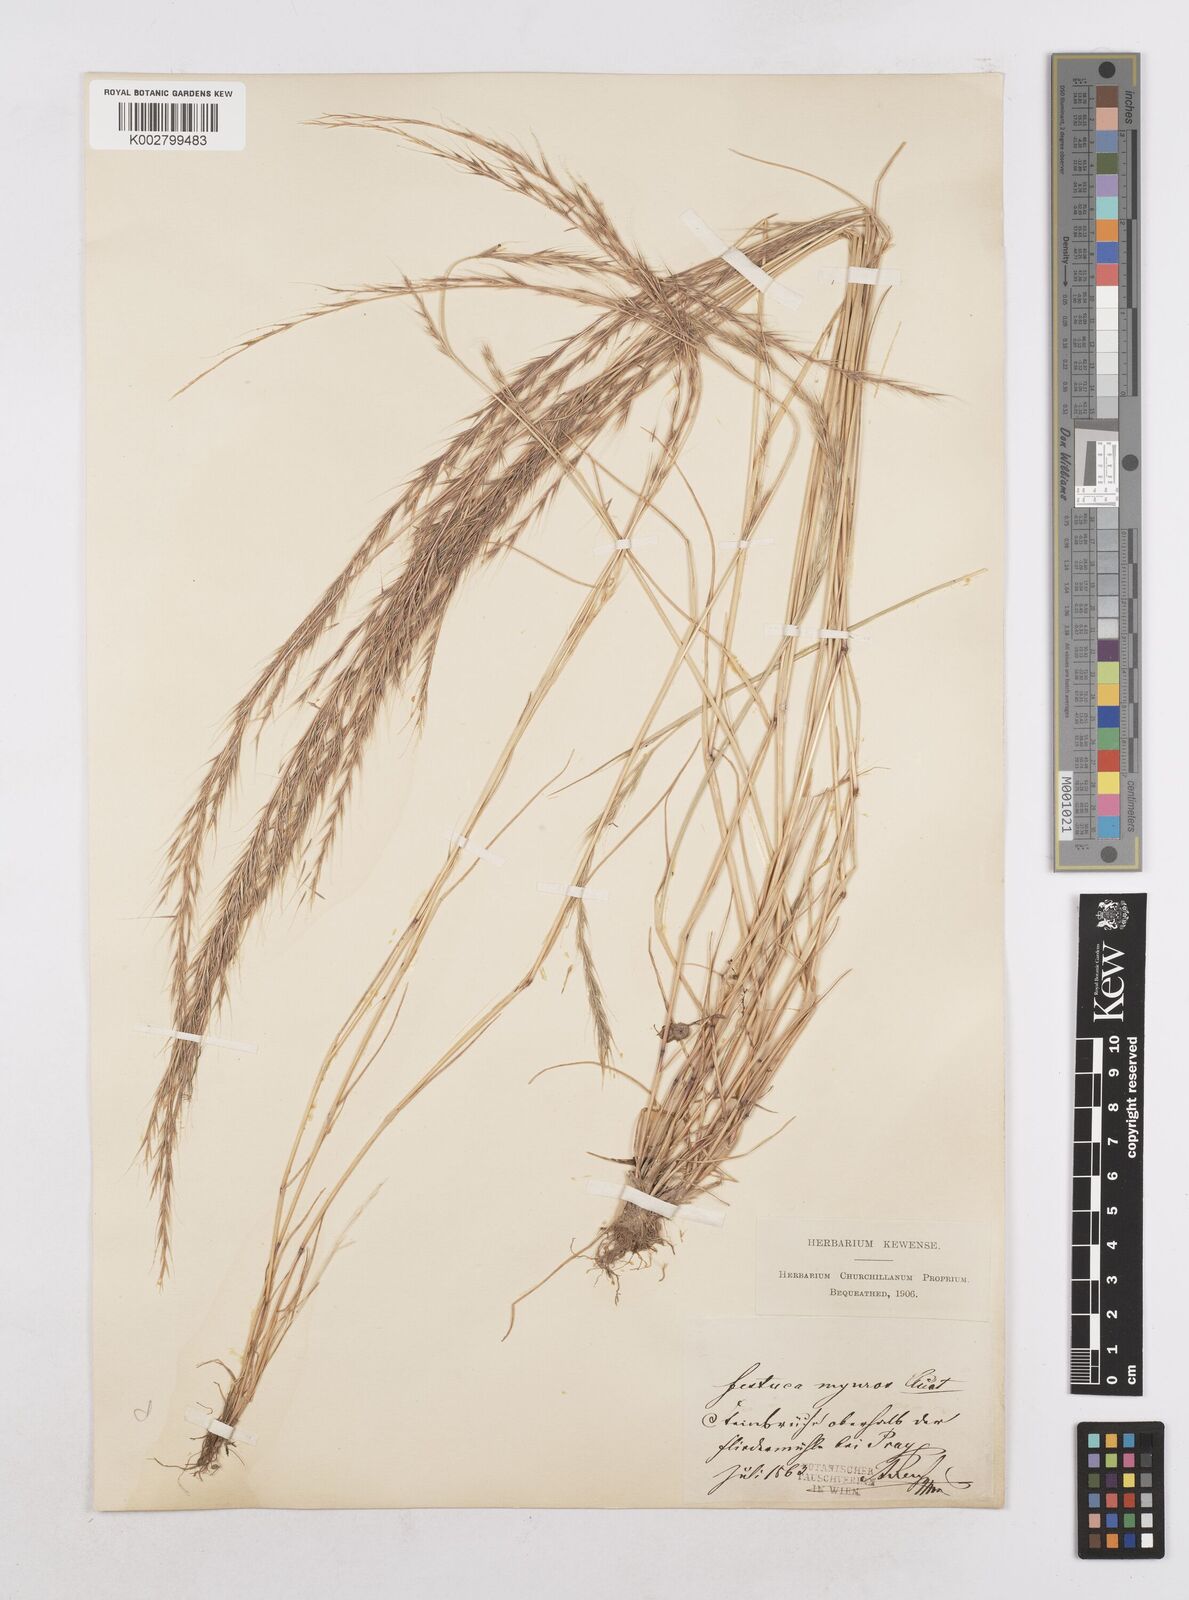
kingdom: Plantae
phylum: Tracheophyta
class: Liliopsida
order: Poales
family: Poaceae
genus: Festuca
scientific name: Festuca myuros
